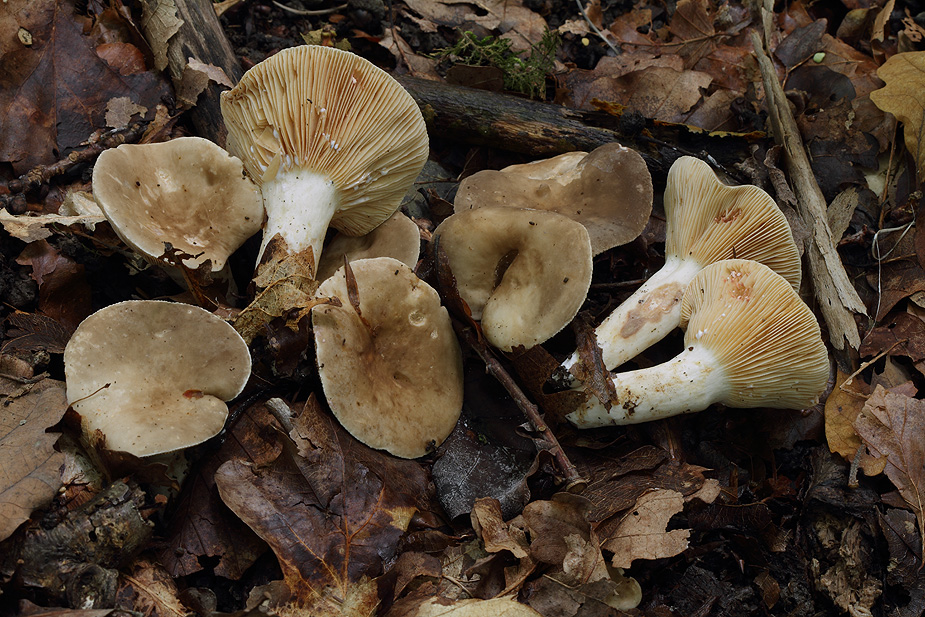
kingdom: Fungi
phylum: Basidiomycota
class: Agaricomycetes
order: Russulales
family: Russulaceae
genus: Lactarius
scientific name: Lactarius pterosporus
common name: vingesporet mælkehat
